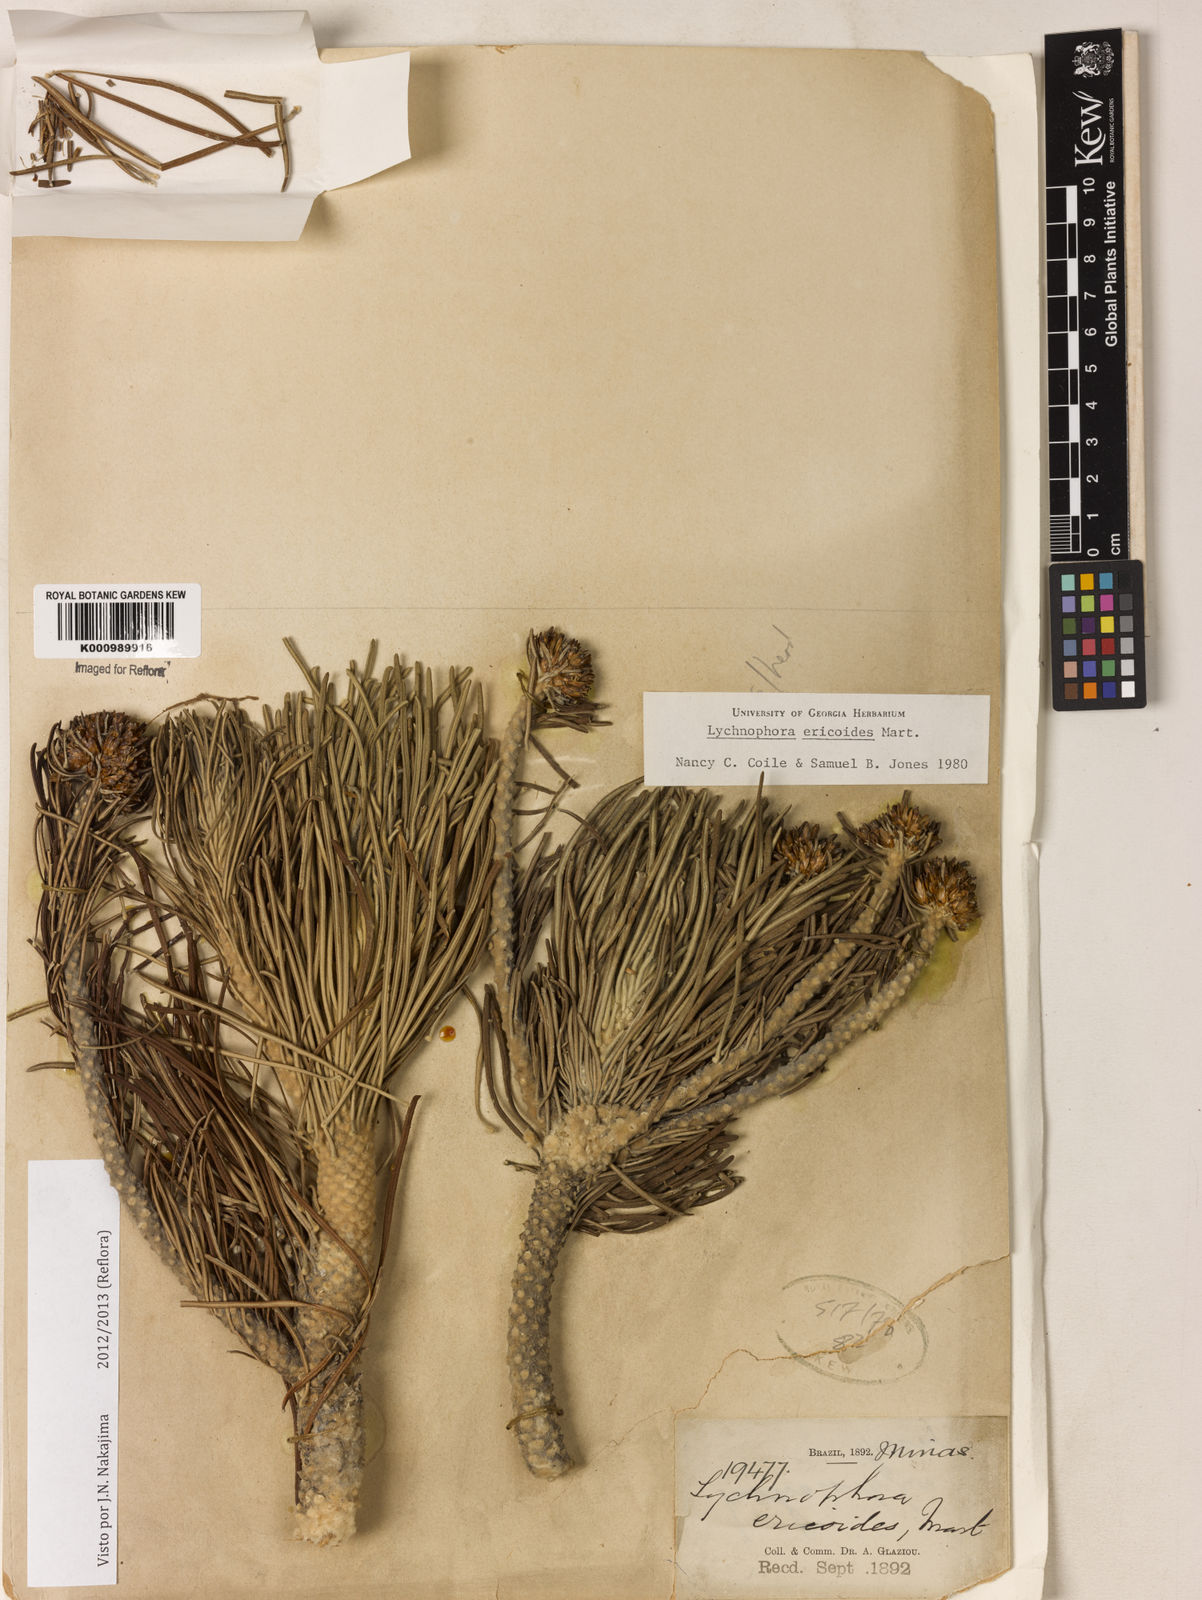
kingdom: Plantae
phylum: Tracheophyta
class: Magnoliopsida
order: Asterales
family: Asteraceae
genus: Lychnophora
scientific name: Lychnophora ericoides
